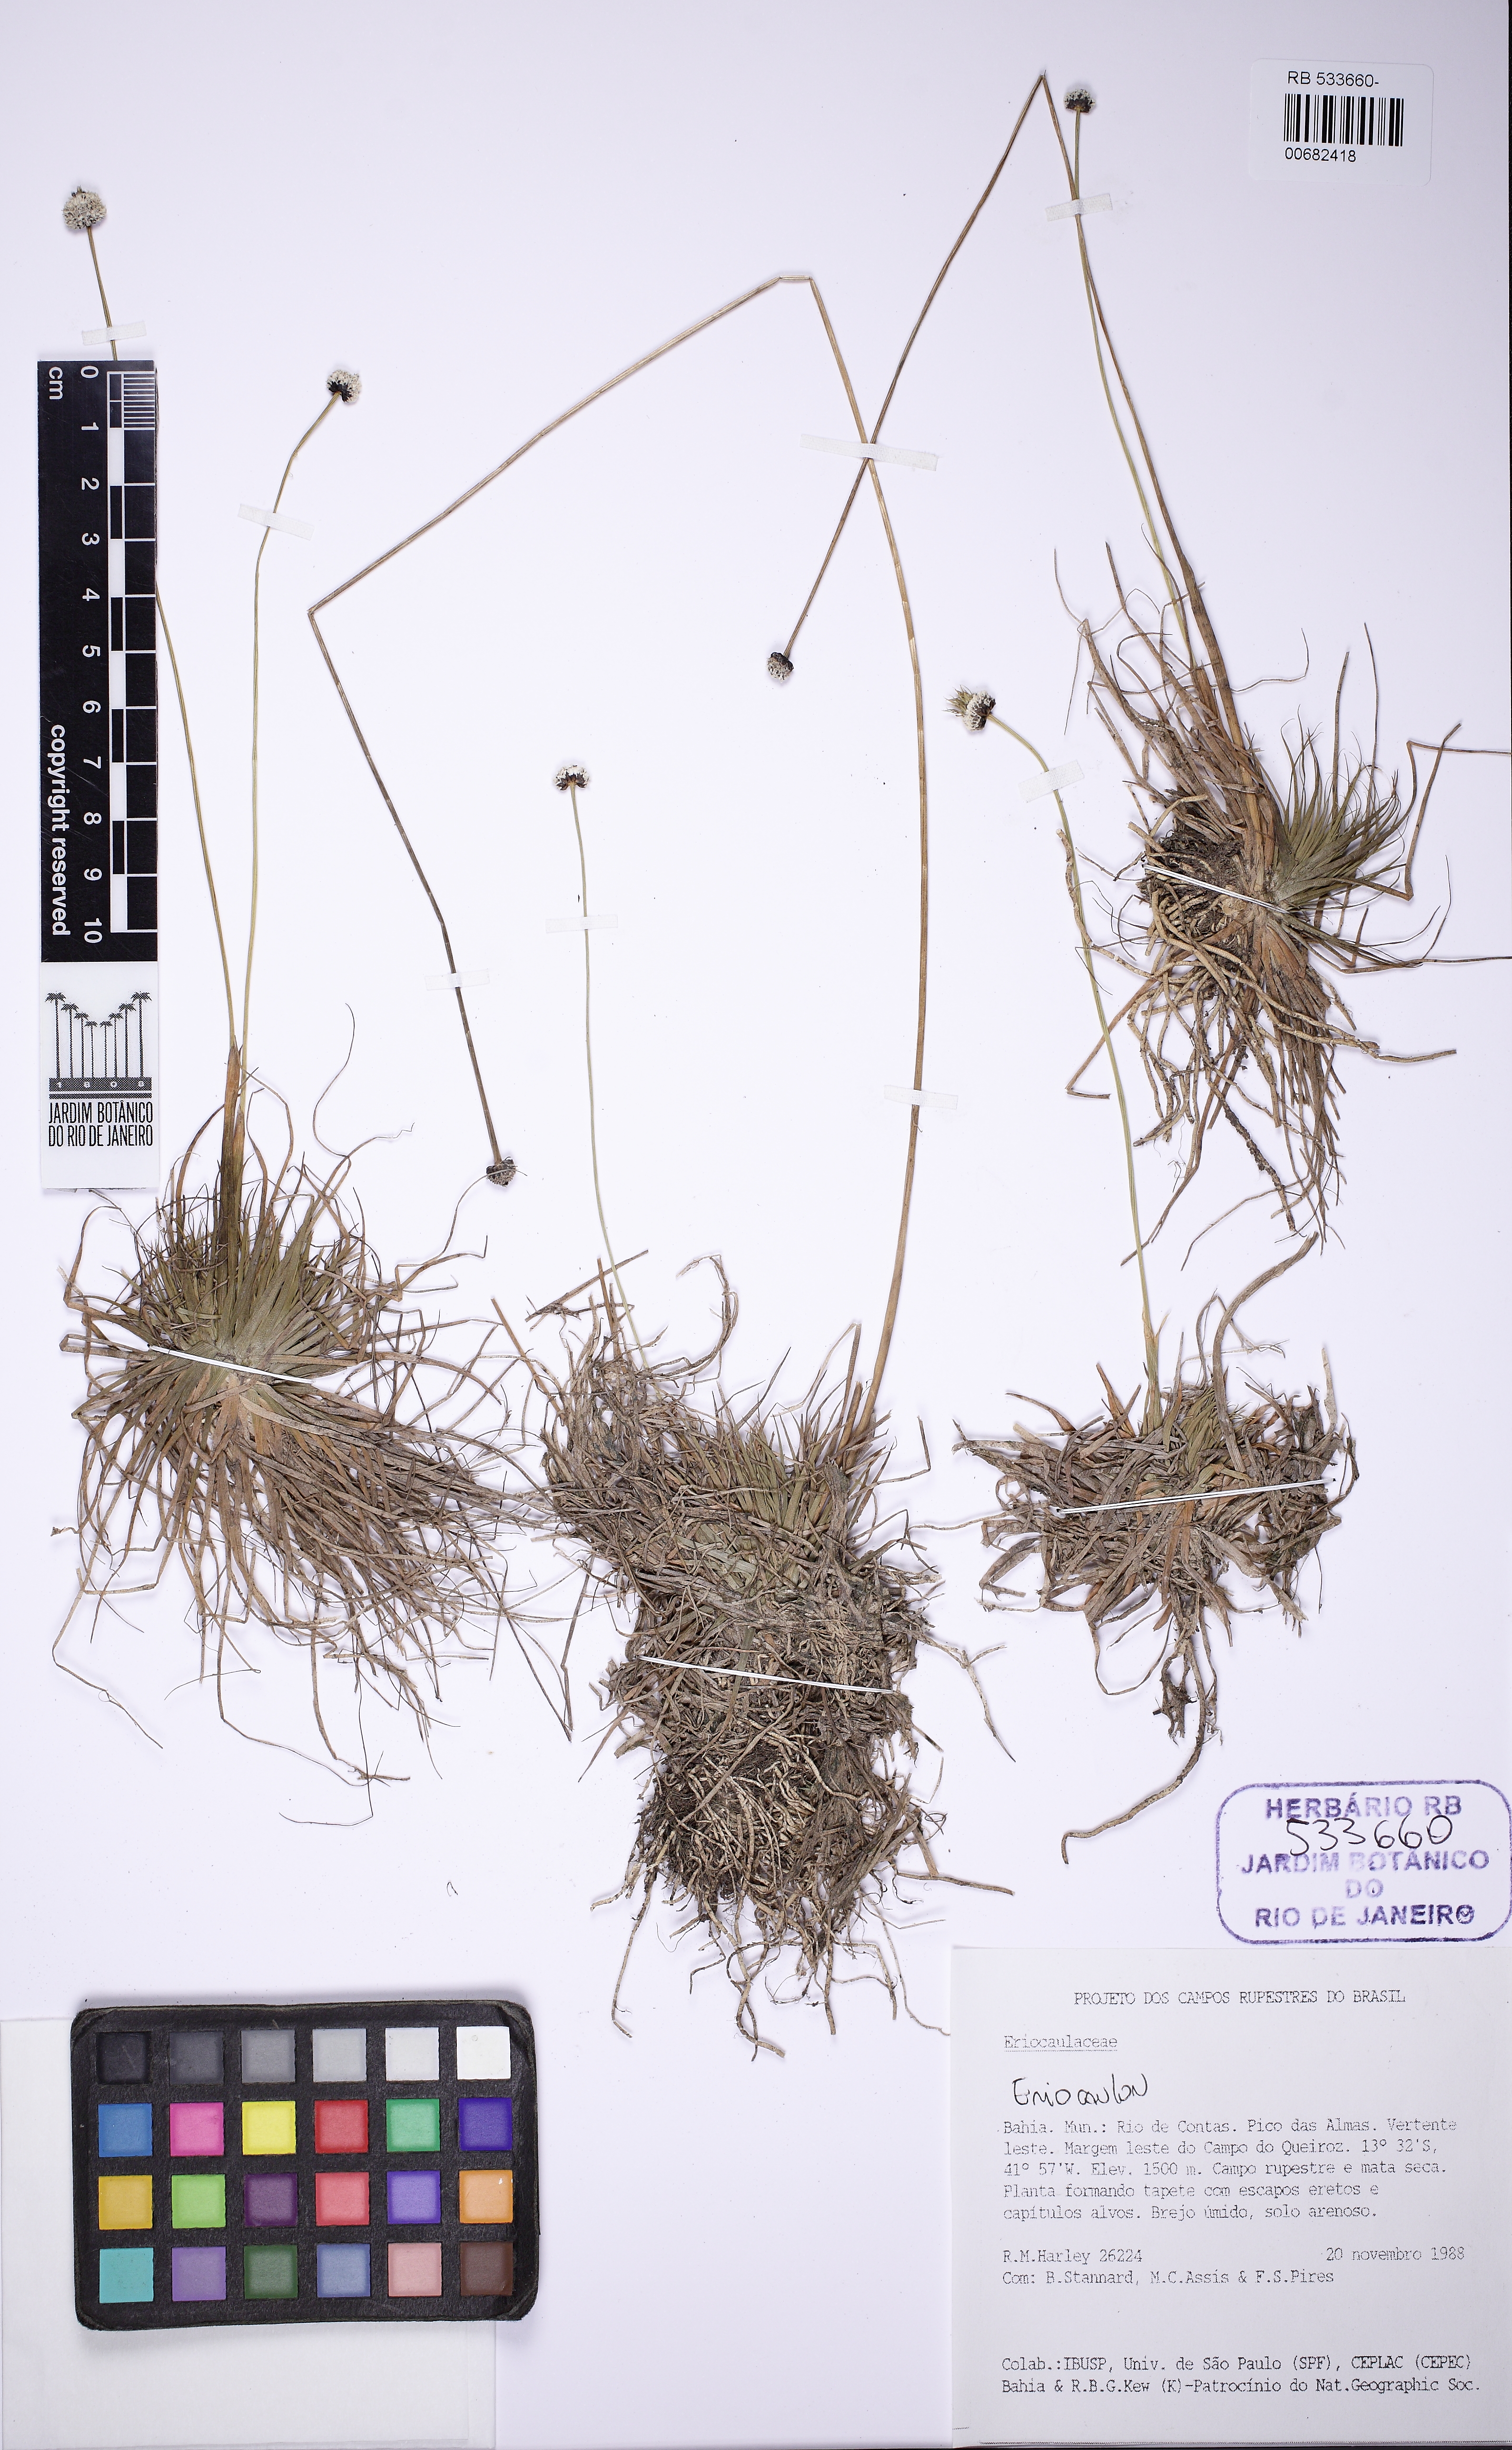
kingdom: Plantae
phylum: Tracheophyta
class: Liliopsida
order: Poales
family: Eriocaulaceae
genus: Eriocaulon
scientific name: Eriocaulon modestum
